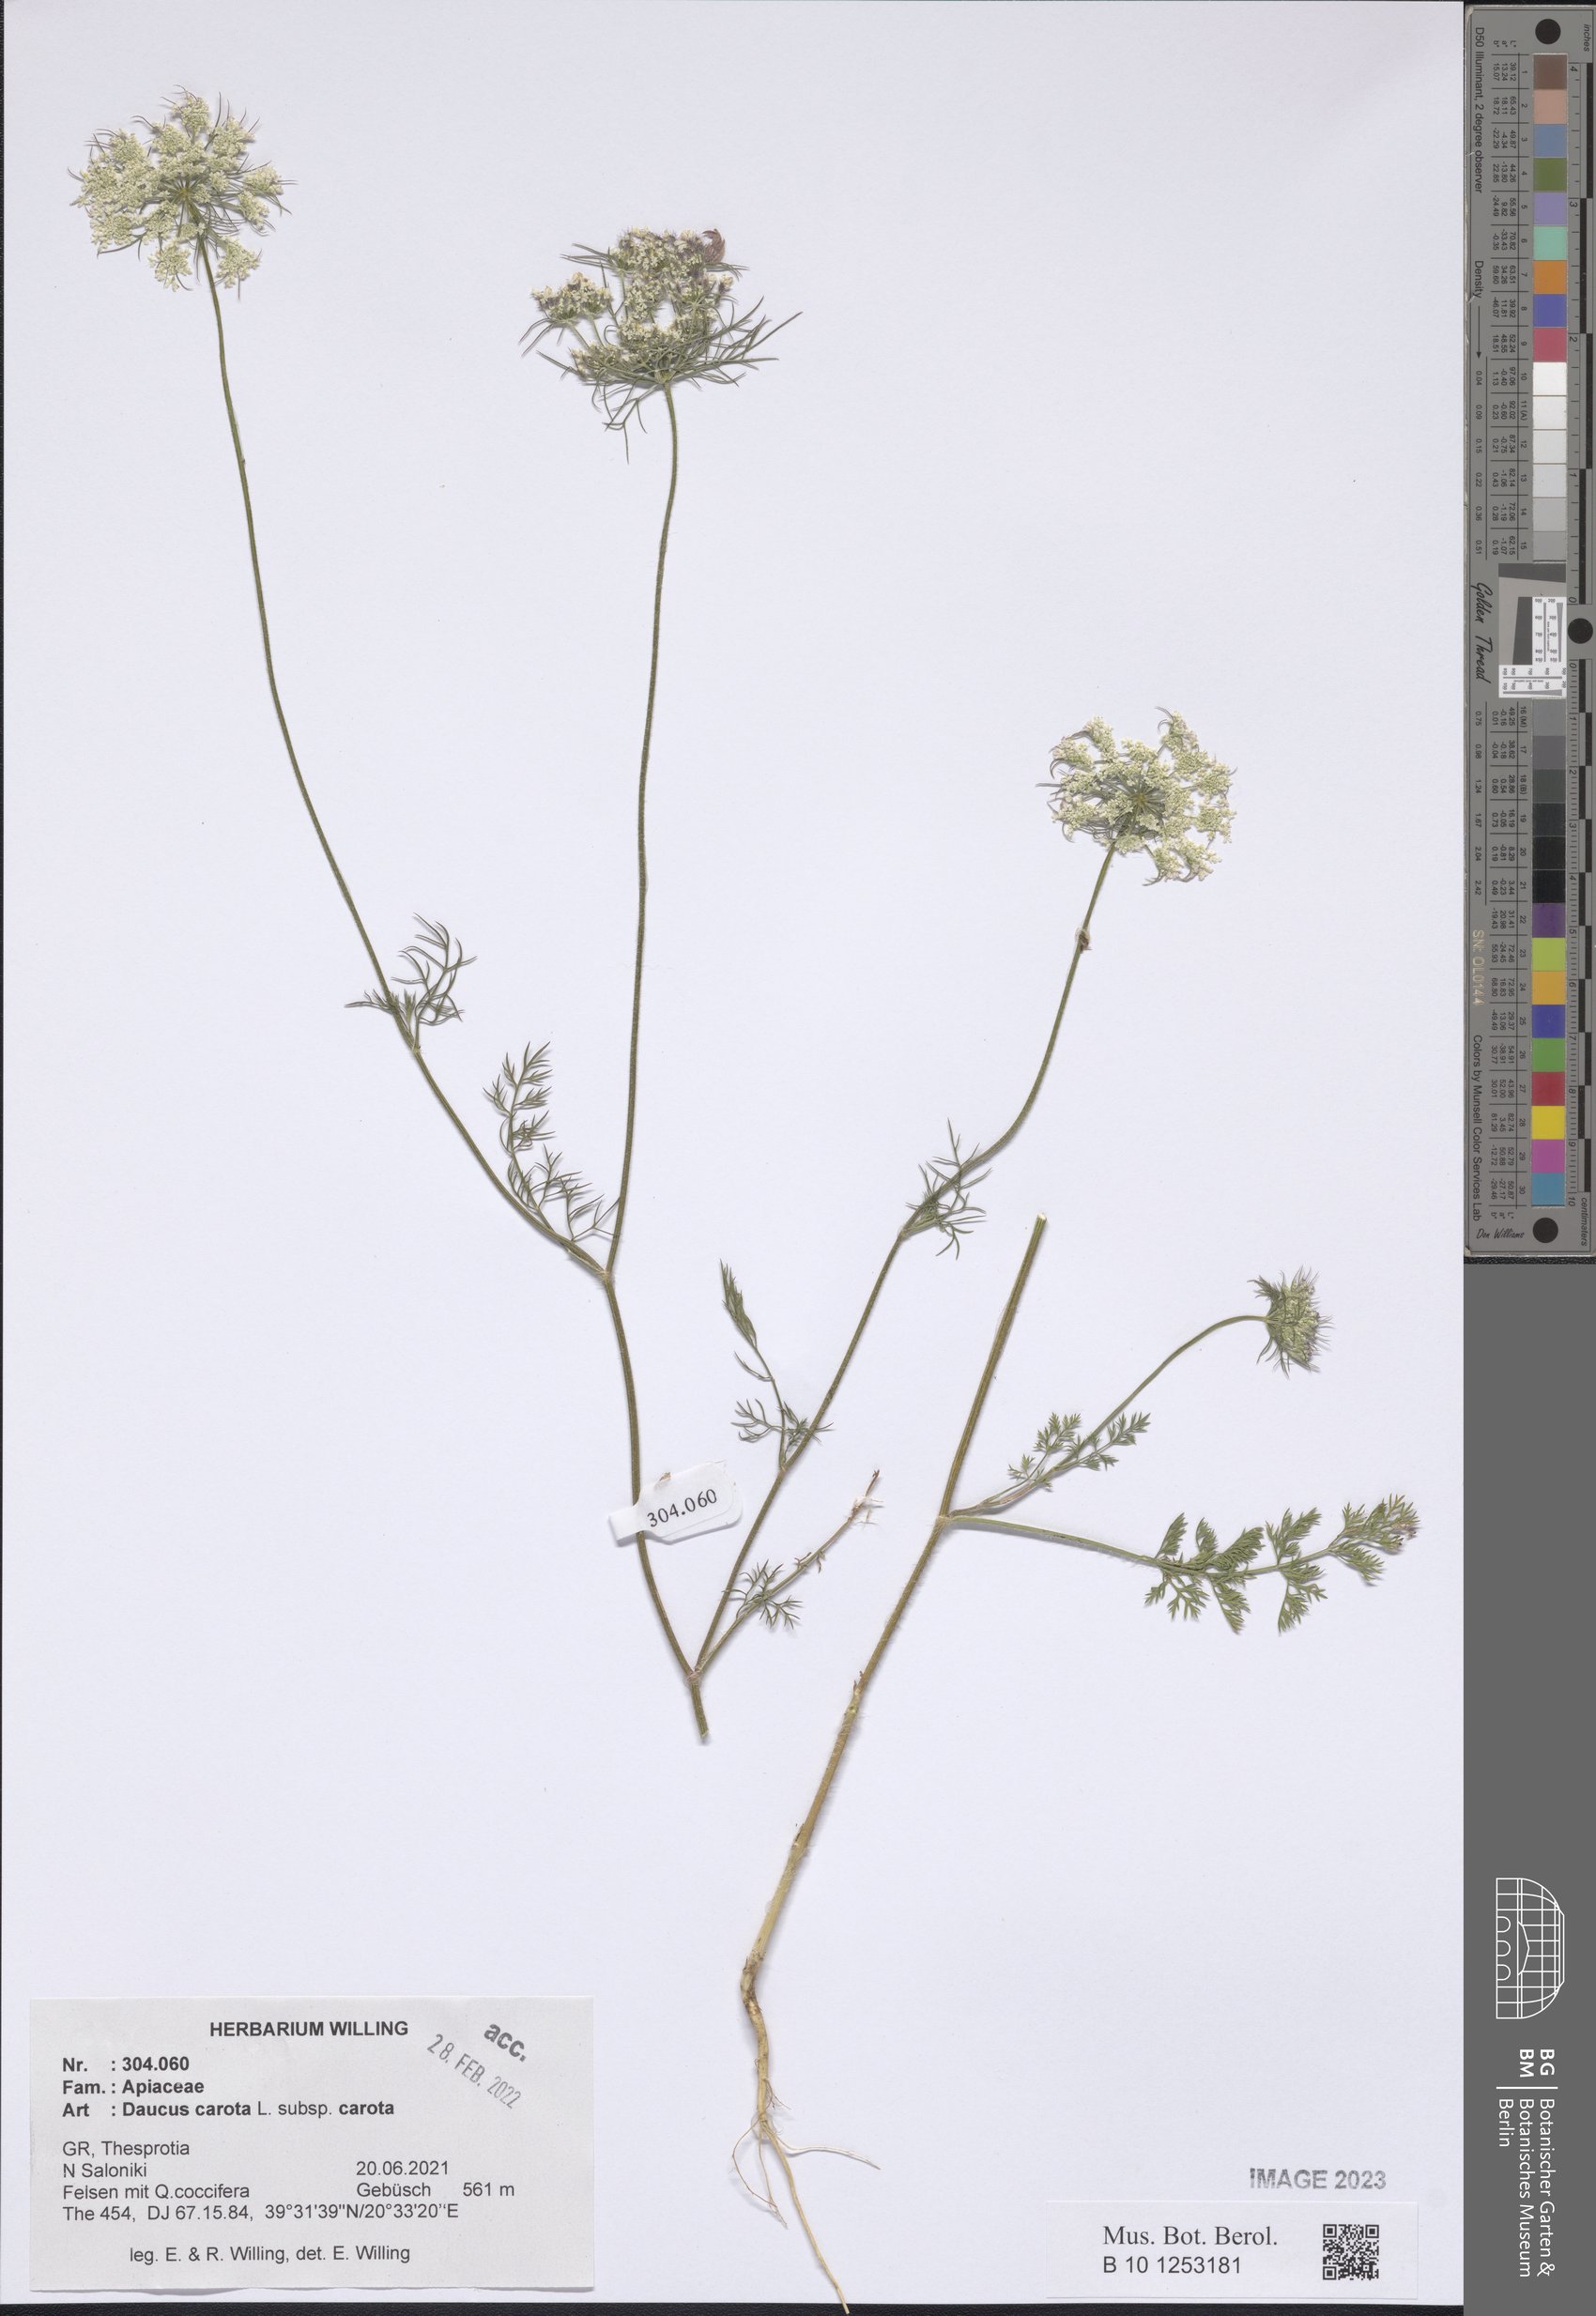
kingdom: Plantae
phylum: Tracheophyta
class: Magnoliopsida
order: Apiales
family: Apiaceae
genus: Daucus
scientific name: Daucus carota
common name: Wild carrot
